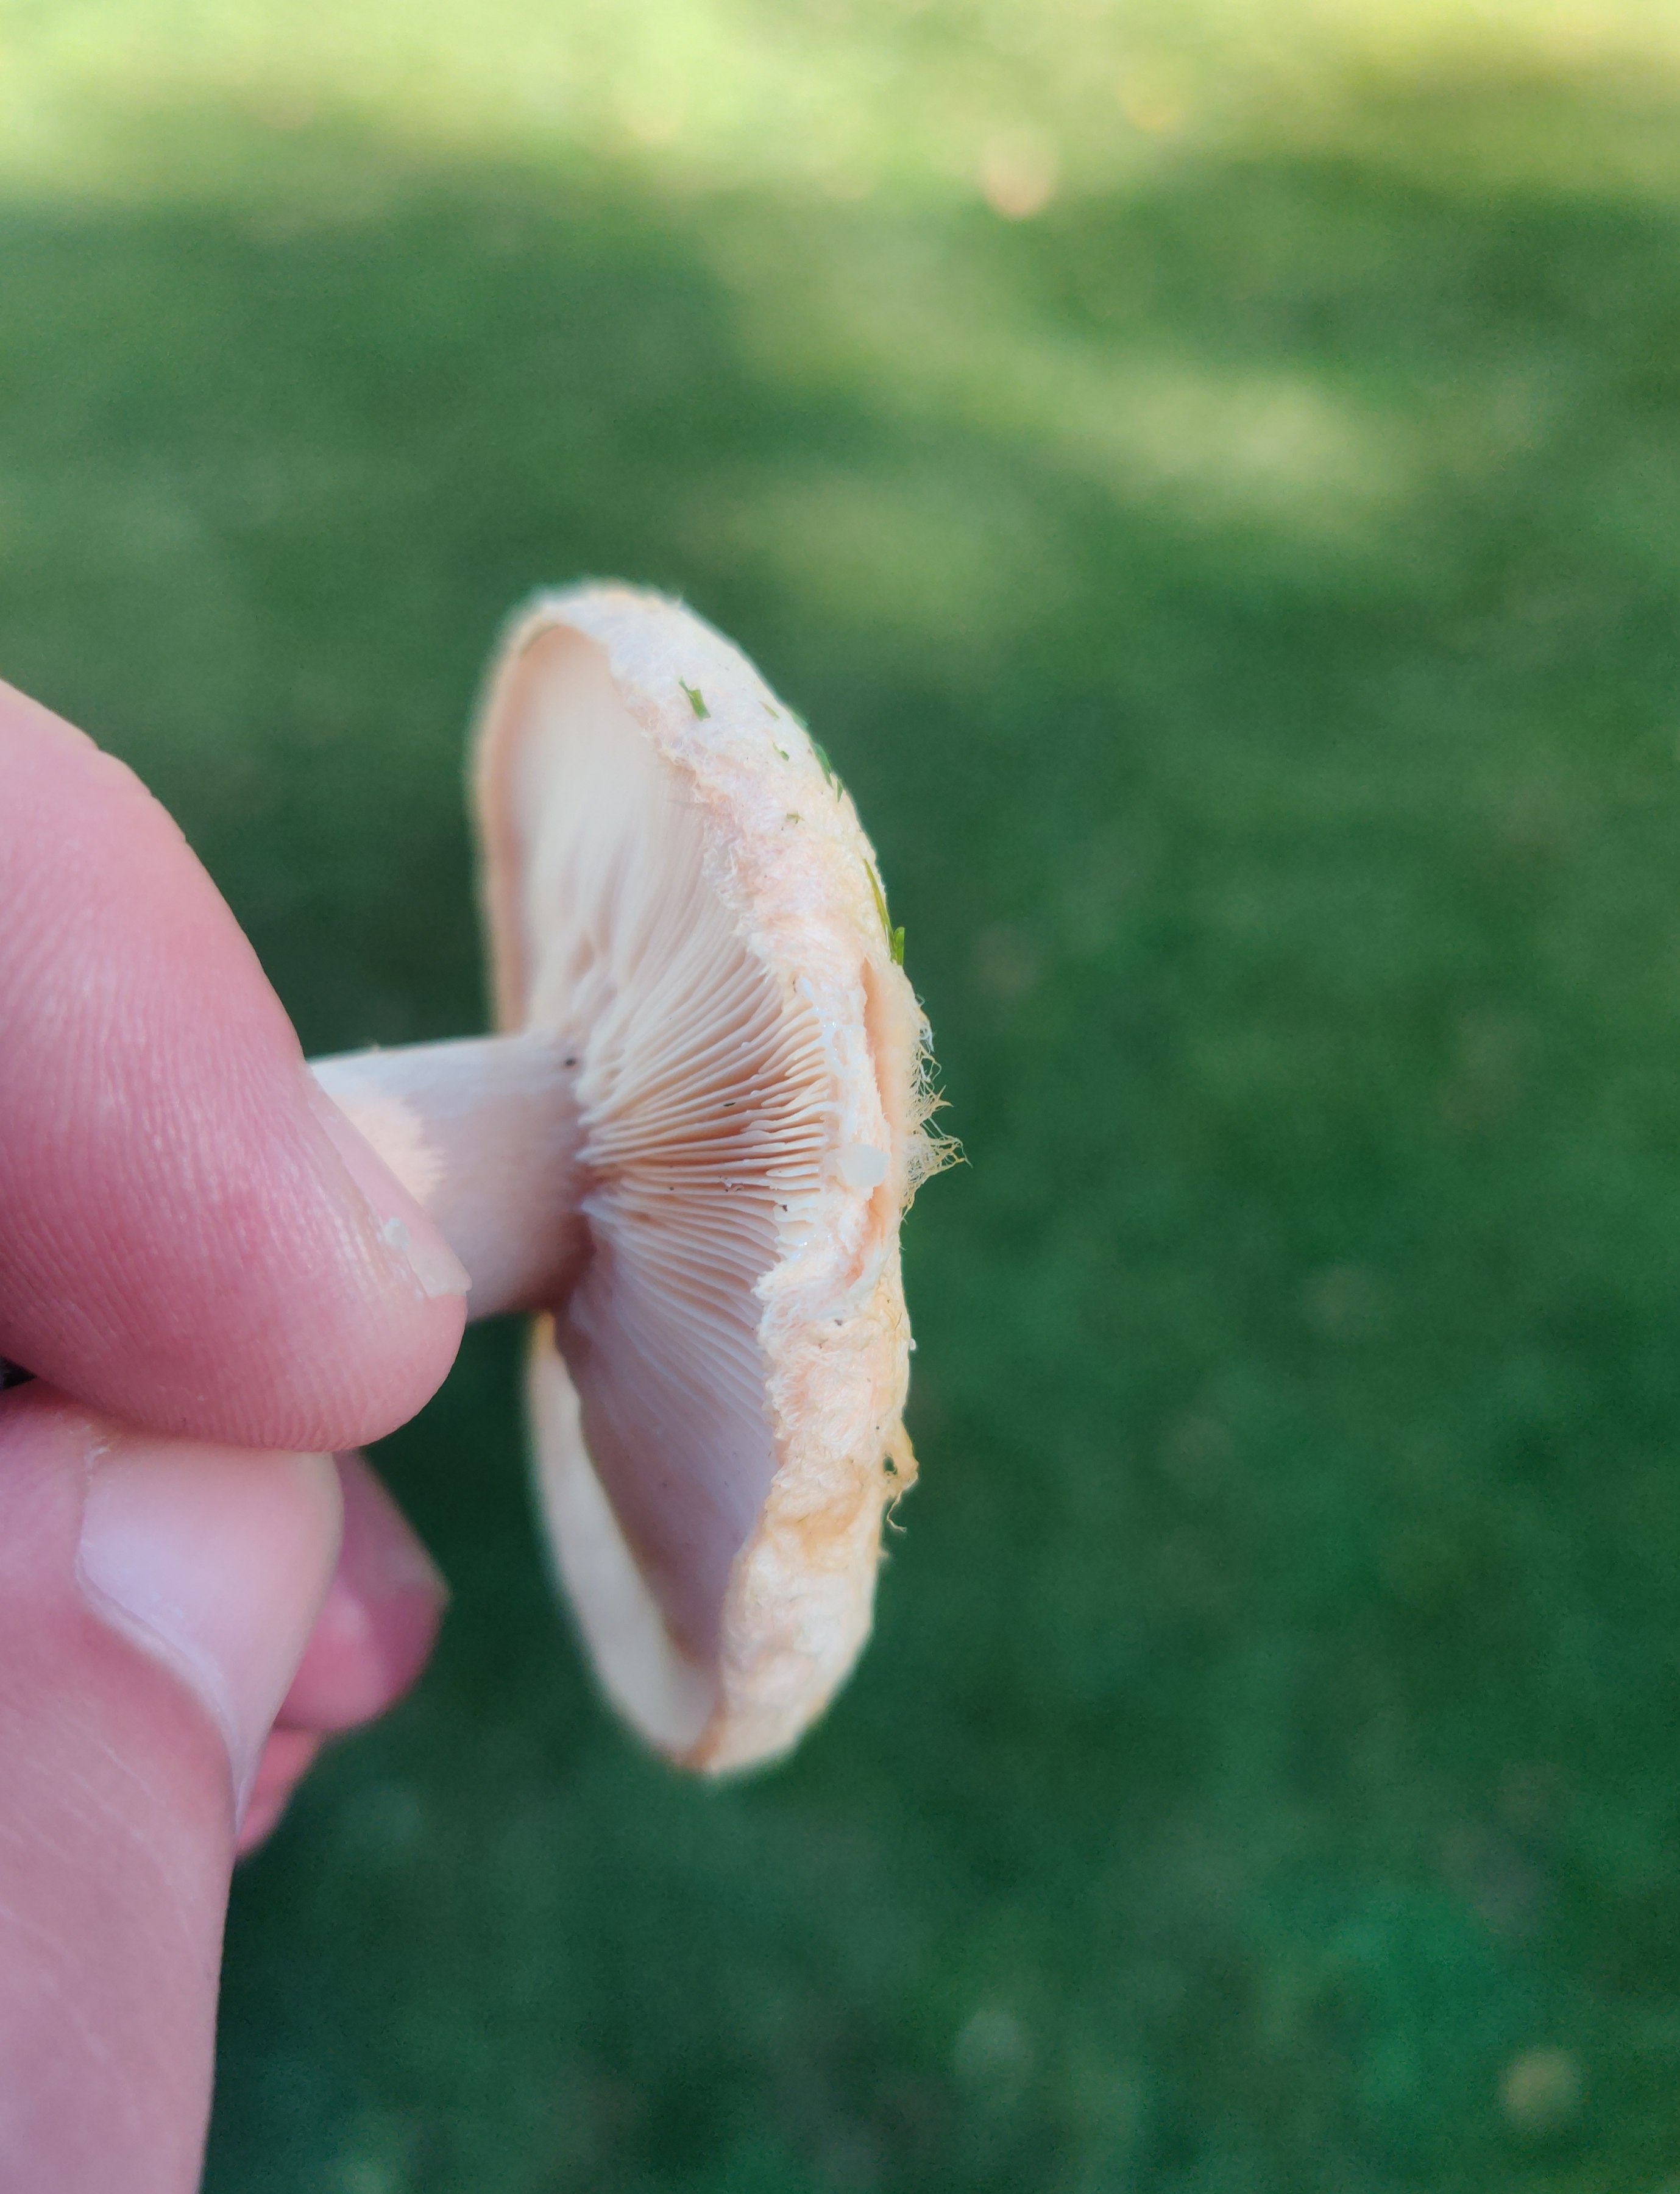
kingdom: Fungi
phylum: Basidiomycota
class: Agaricomycetes
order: Russulales
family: Russulaceae
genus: Lactarius
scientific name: Lactarius pubescens
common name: dunet mælkehat
